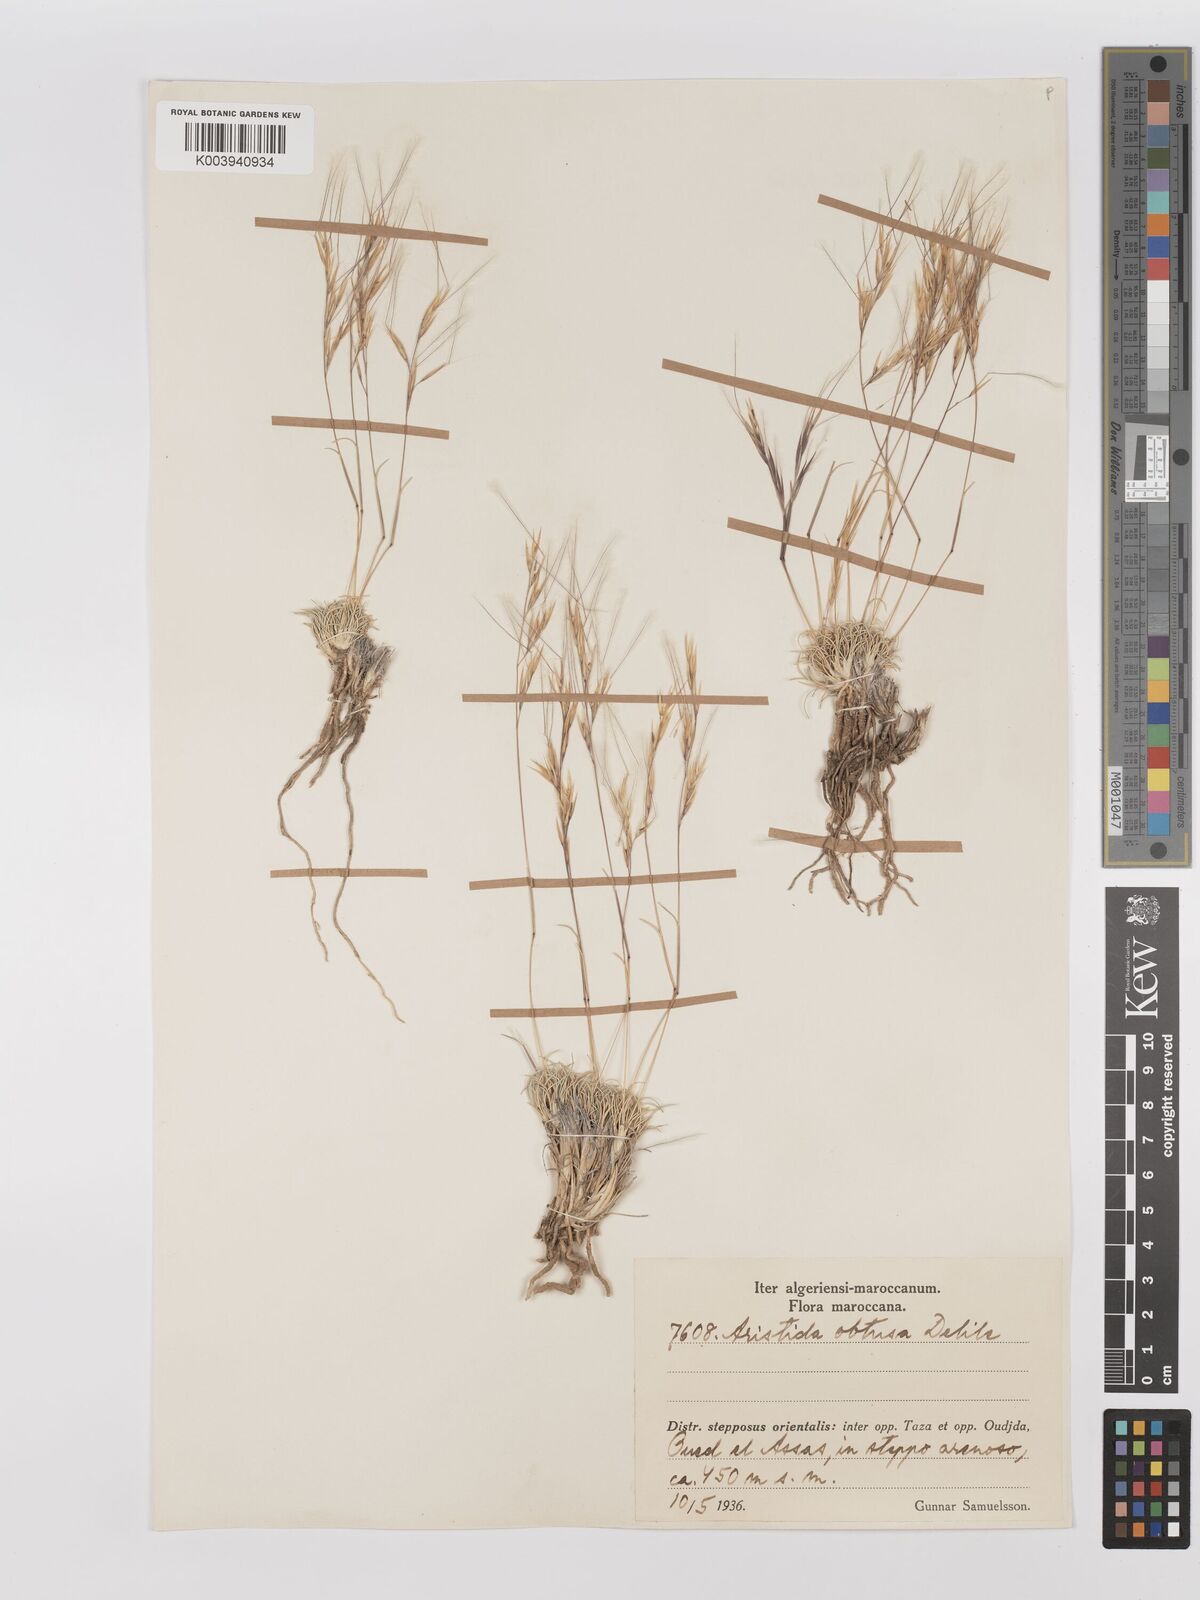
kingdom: Plantae
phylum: Tracheophyta
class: Liliopsida
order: Poales
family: Poaceae
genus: Stipagrostis
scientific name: Stipagrostis obtusa
